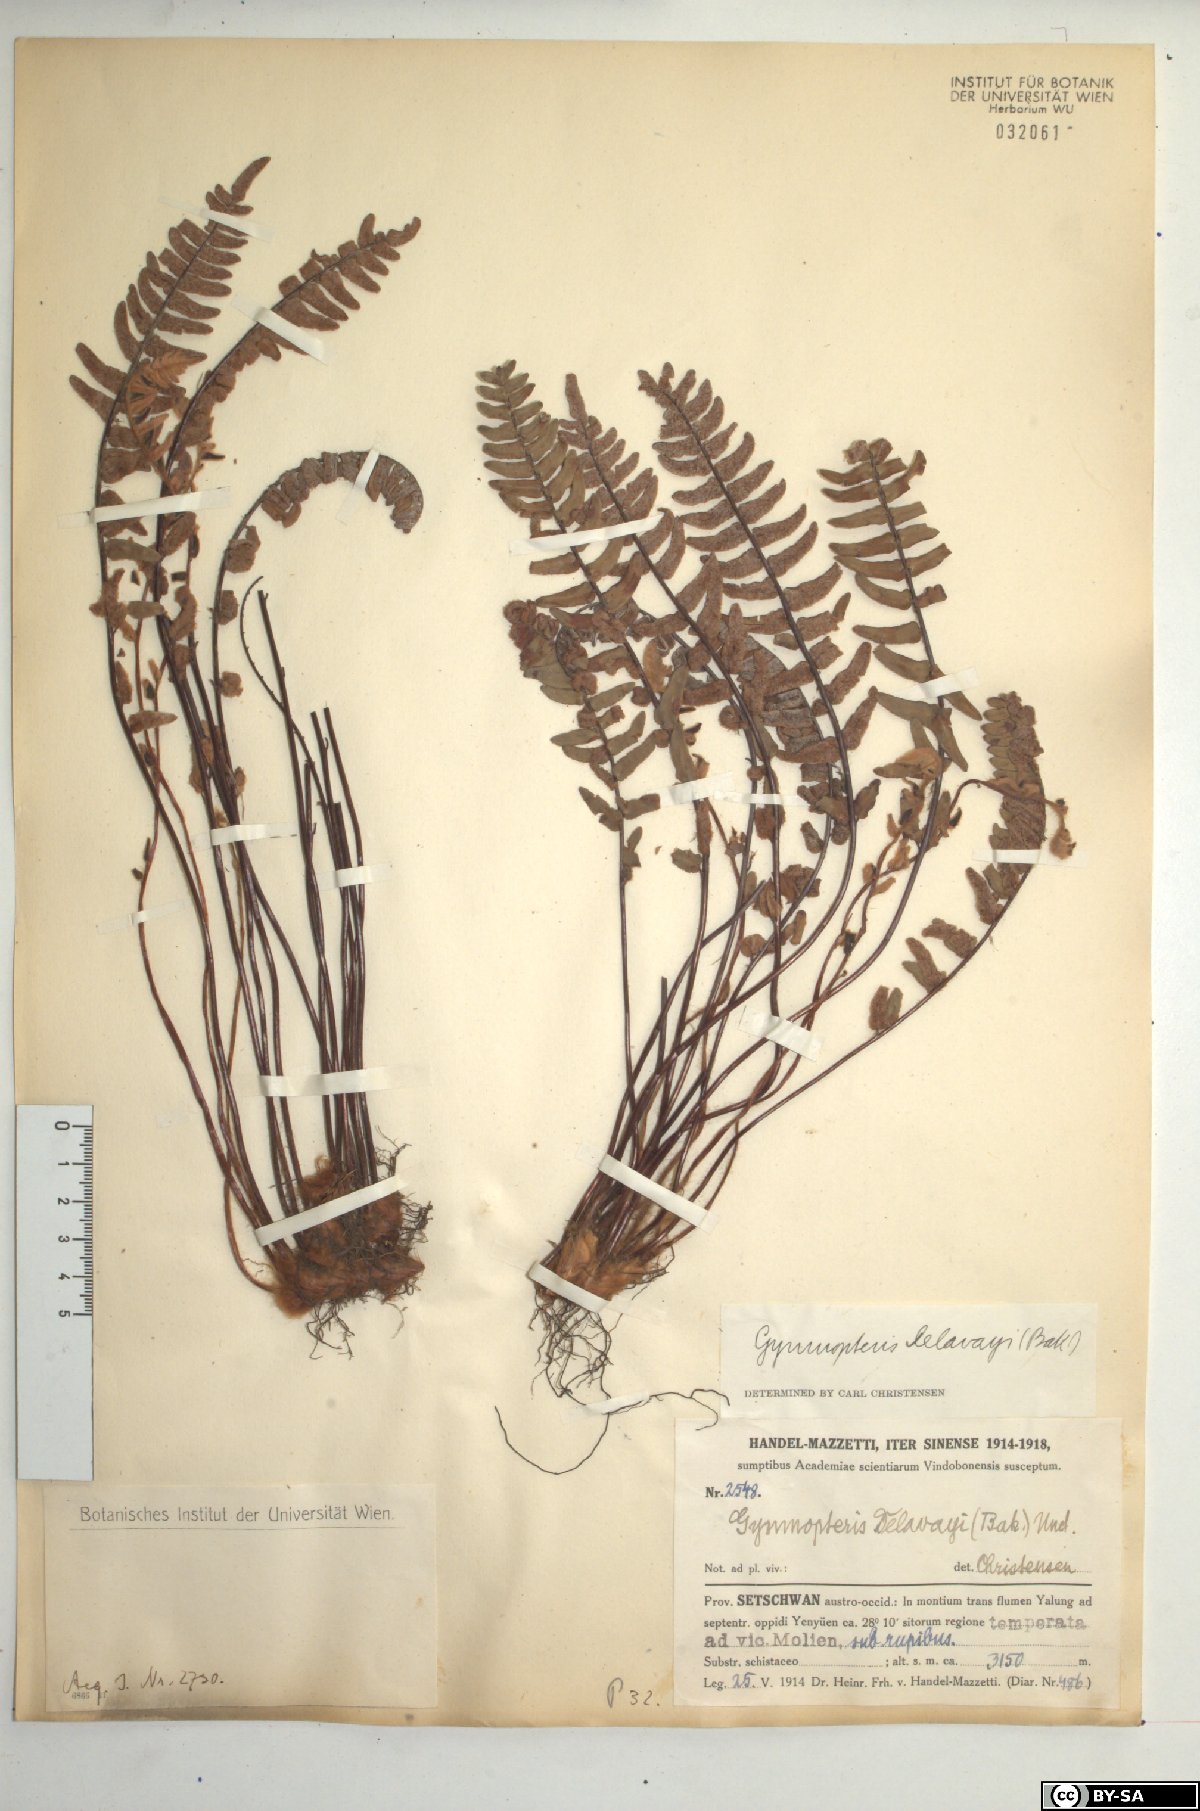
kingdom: Plantae
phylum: Tracheophyta
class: Polypodiopsida
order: Polypodiales
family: Pteridaceae
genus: Paragymnopteris
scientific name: Paragymnopteris delavayi
